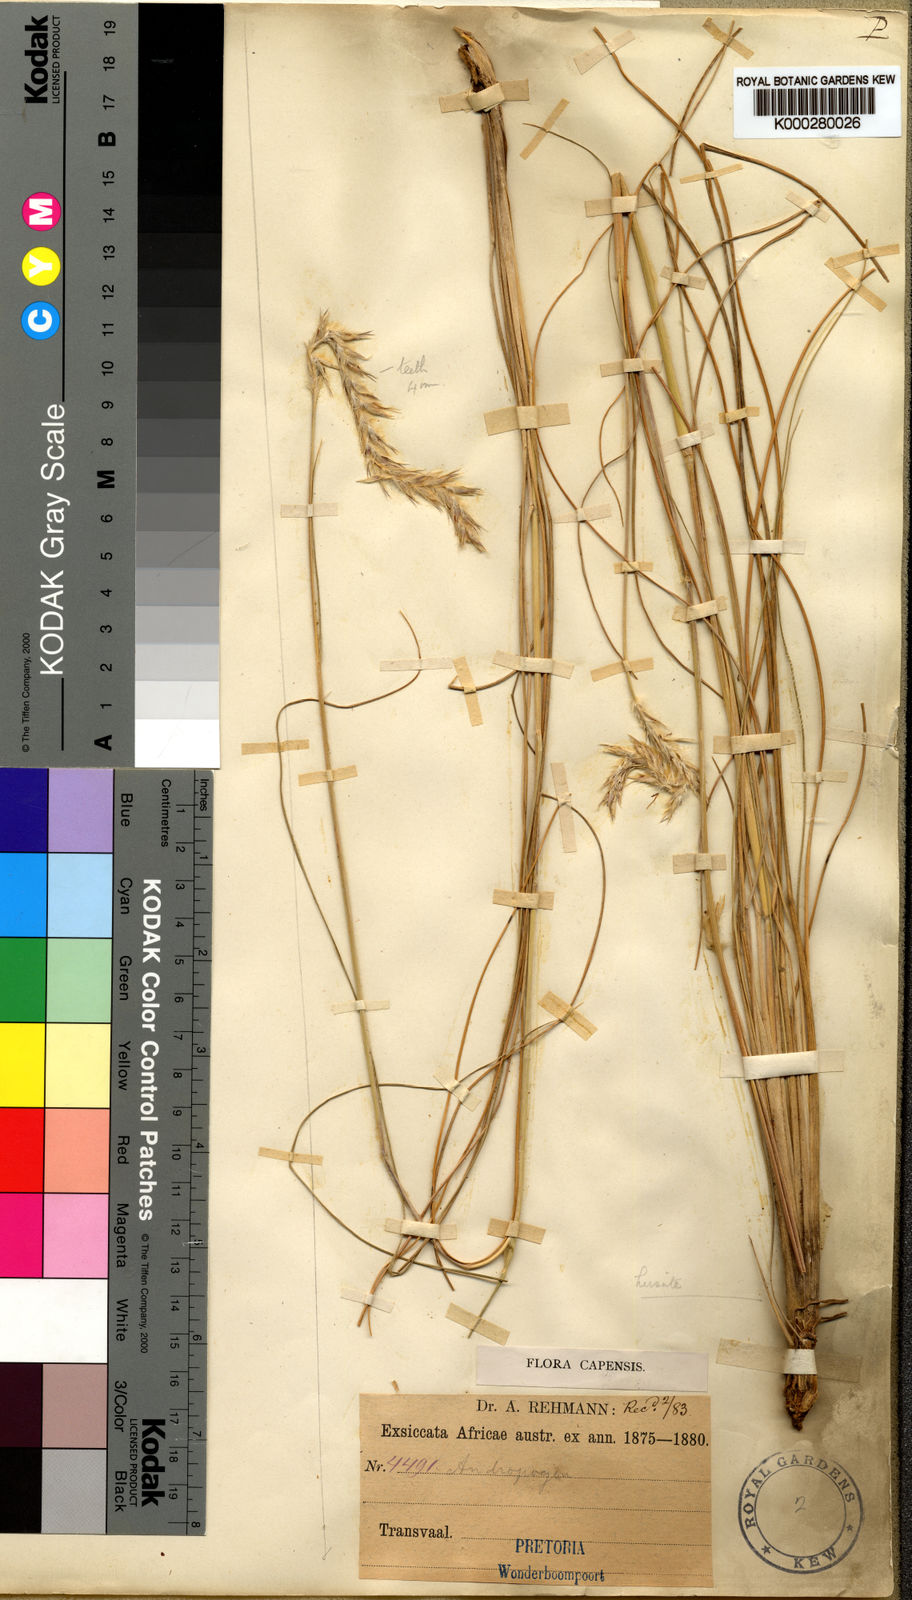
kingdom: Plantae
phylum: Tracheophyta
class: Liliopsida
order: Poales
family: Poaceae
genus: Elionurus
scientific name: Elionurus muticus
